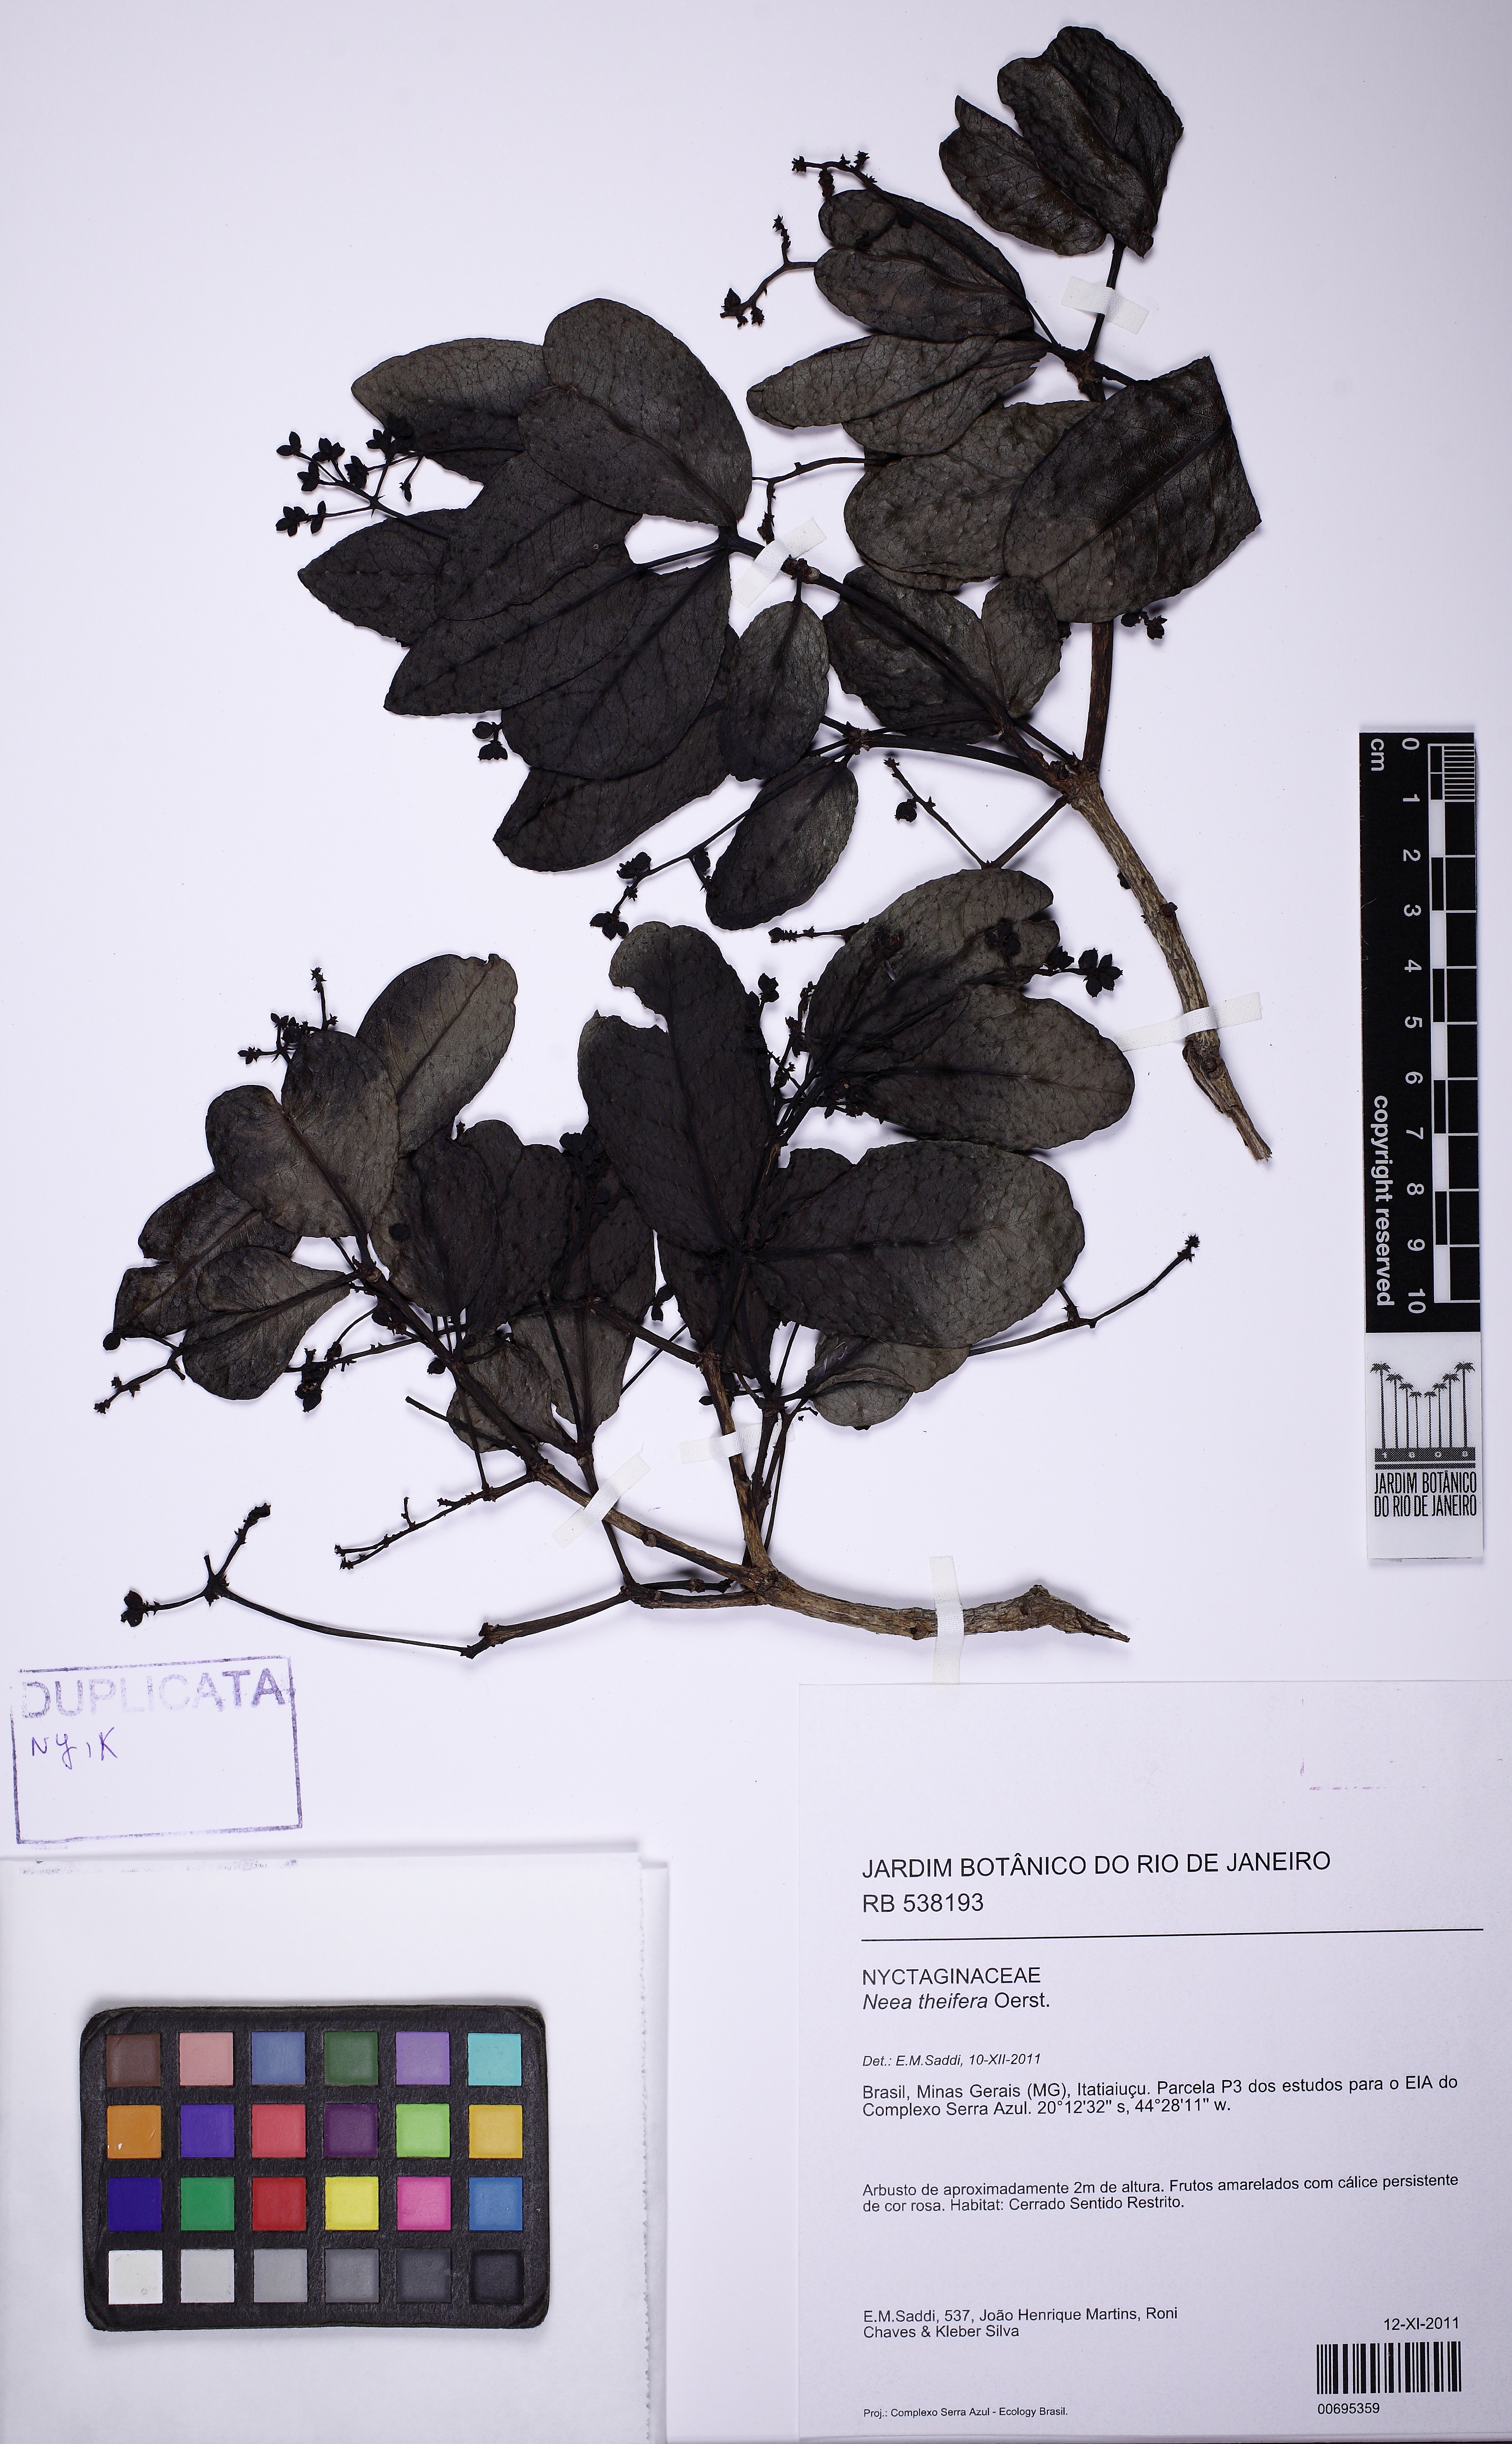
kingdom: Plantae
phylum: Tracheophyta
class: Magnoliopsida
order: Caryophyllales
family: Nyctaginaceae
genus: Neea
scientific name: Neea theifera
